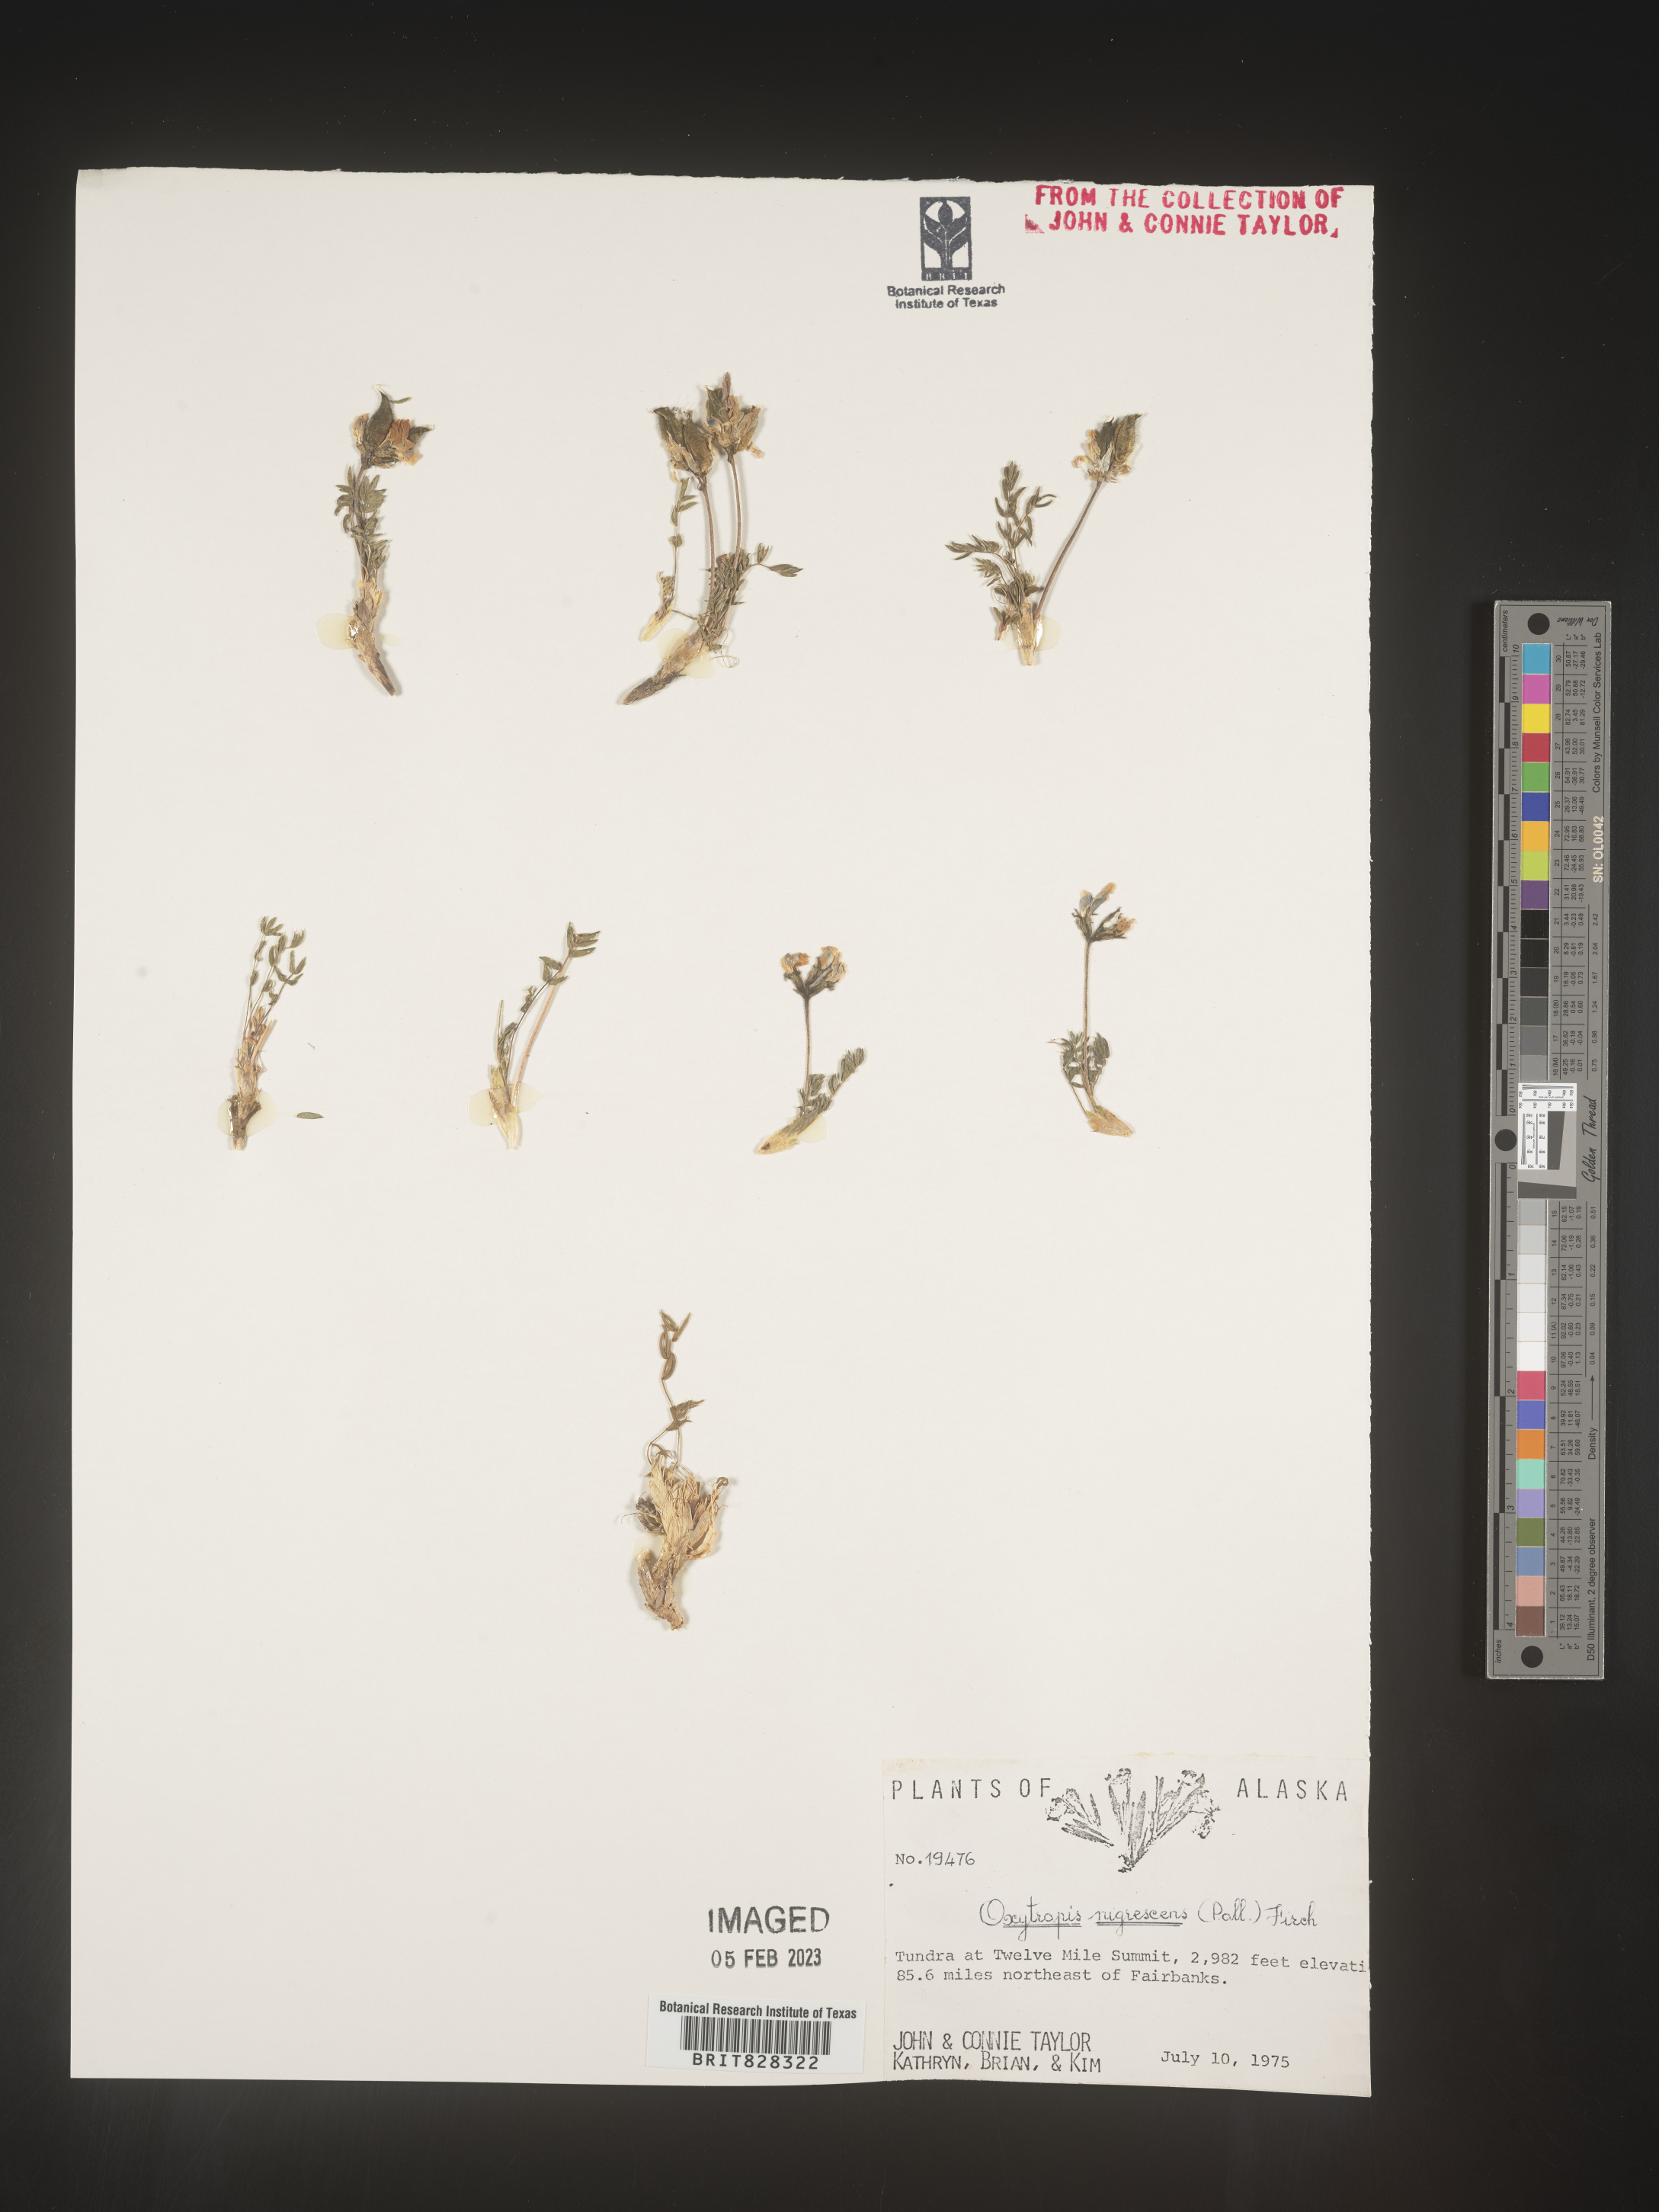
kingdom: Plantae
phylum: Tracheophyta
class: Magnoliopsida
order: Fabales
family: Fabaceae
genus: Oxytropis
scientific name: Oxytropis
